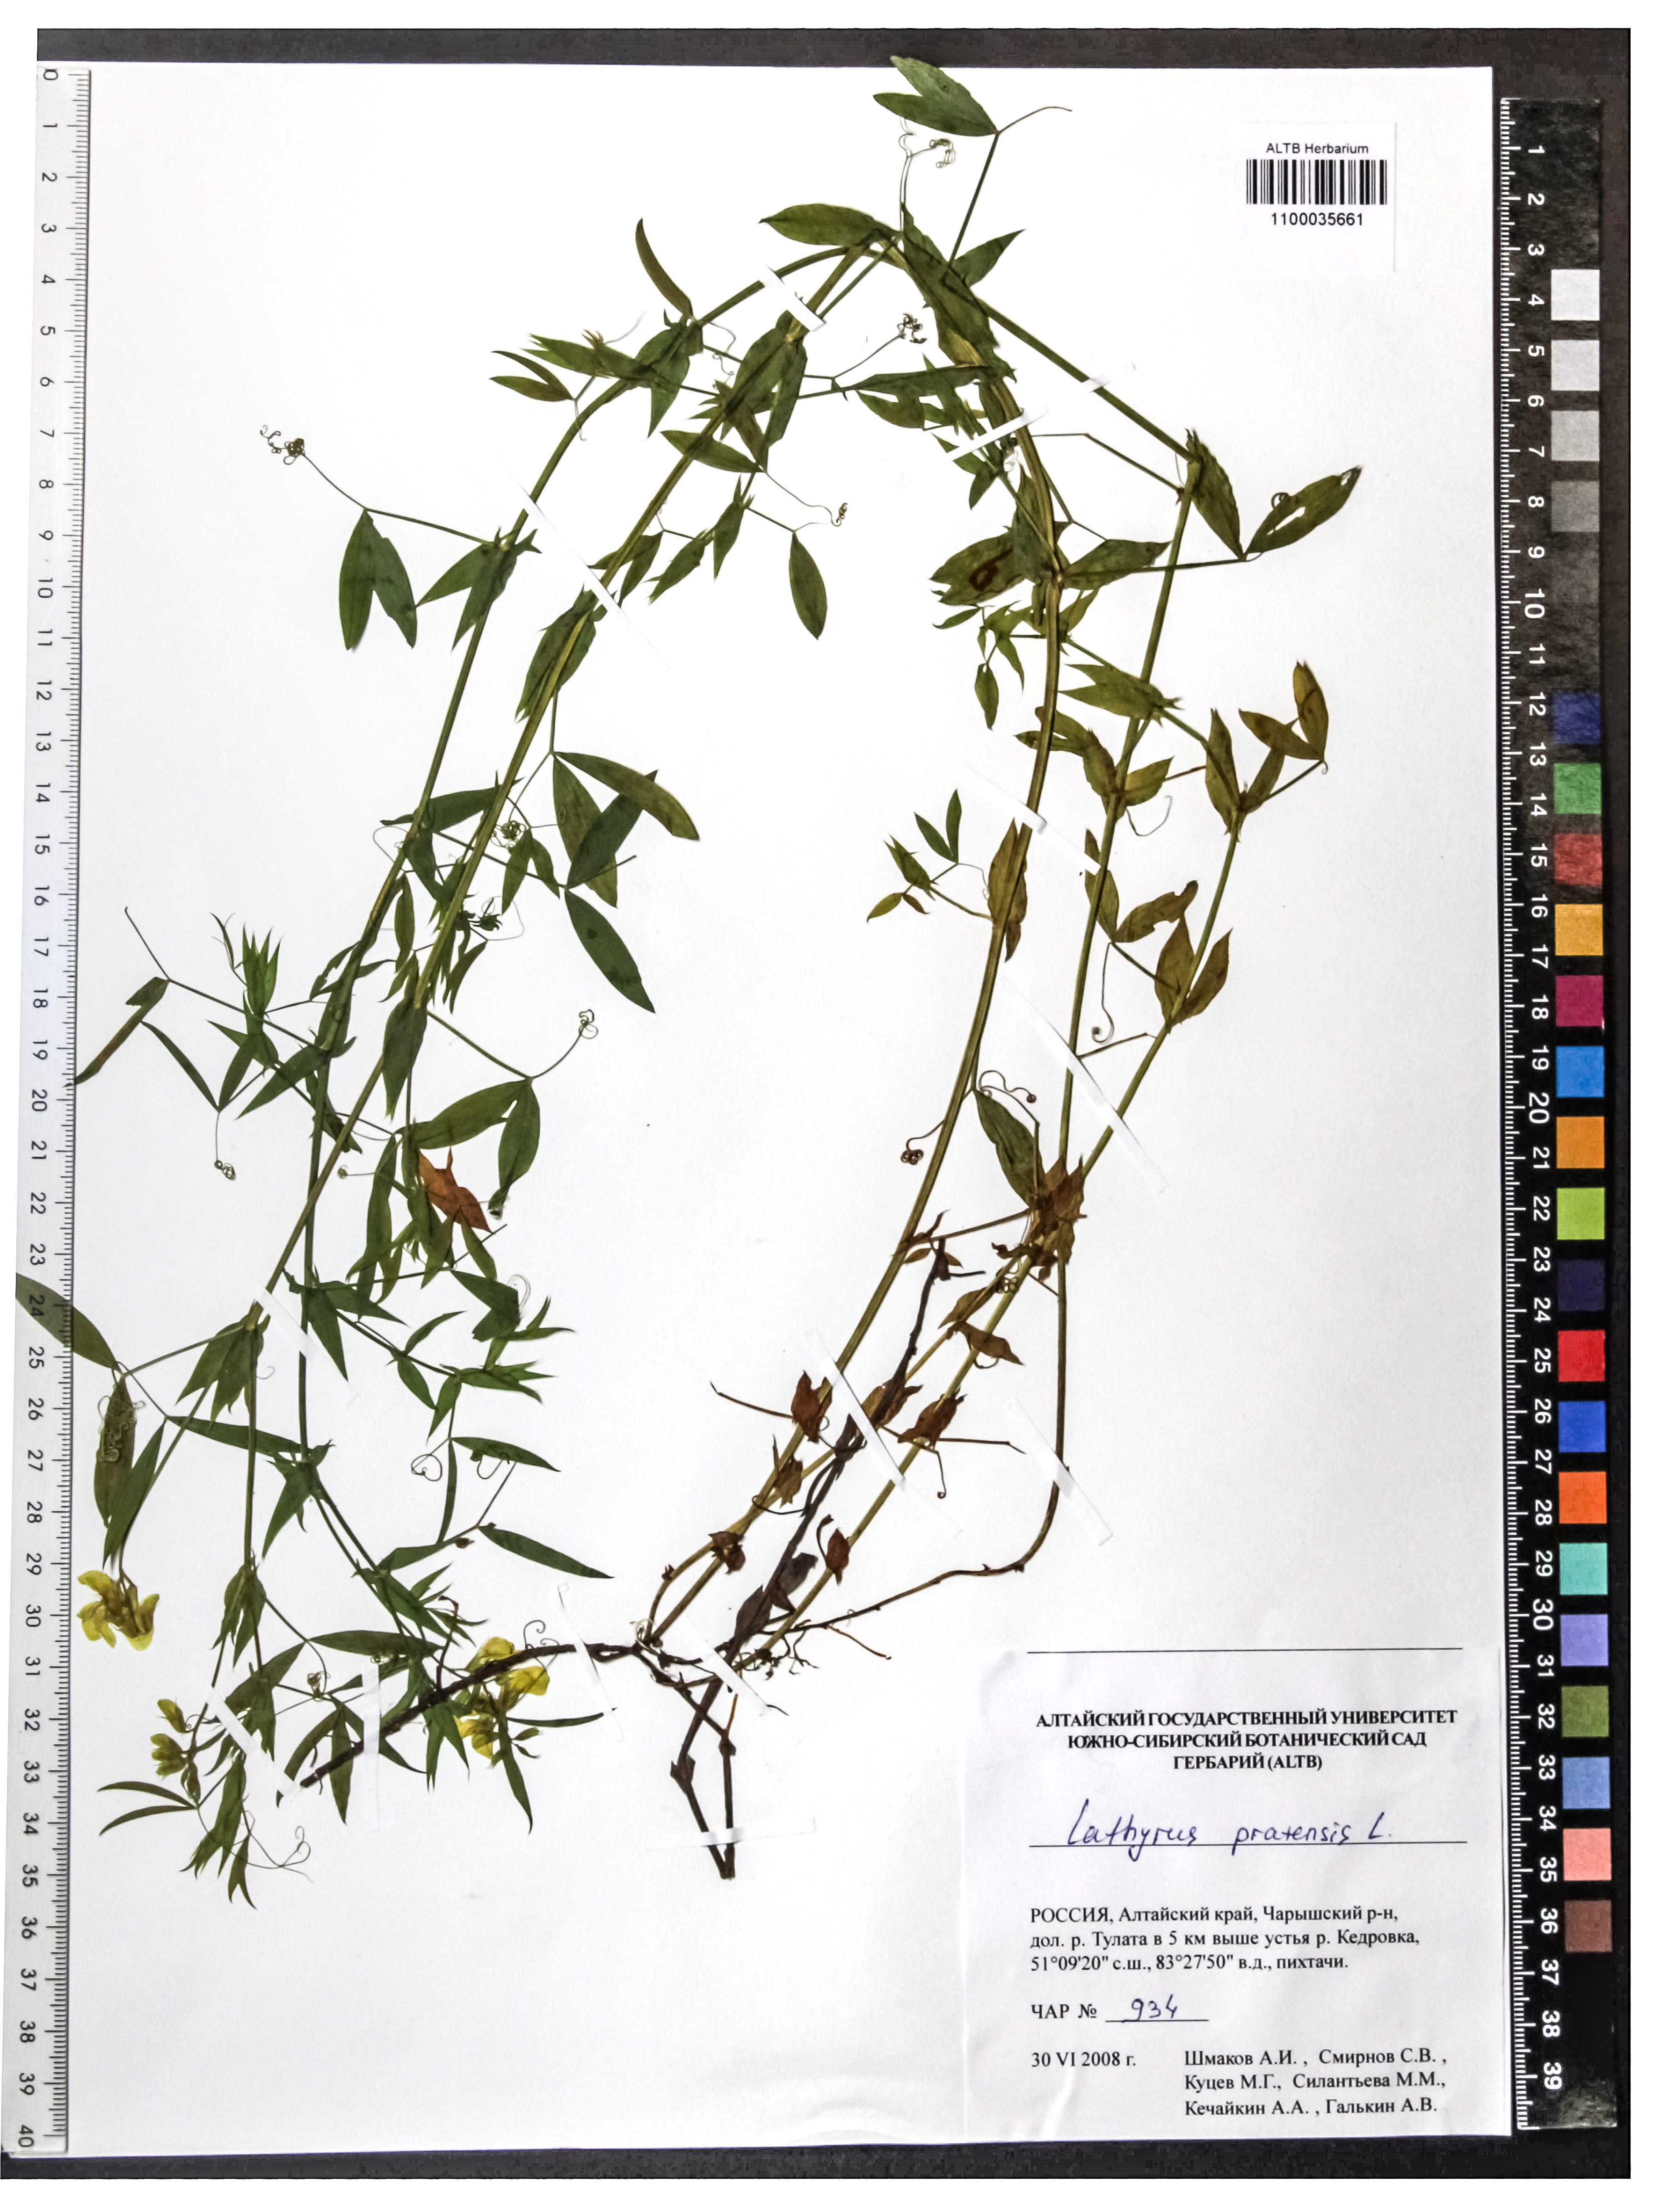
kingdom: Plantae
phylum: Tracheophyta
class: Magnoliopsida
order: Fabales
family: Fabaceae
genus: Lathyrus
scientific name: Lathyrus pratensis
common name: Meadow vetchling
